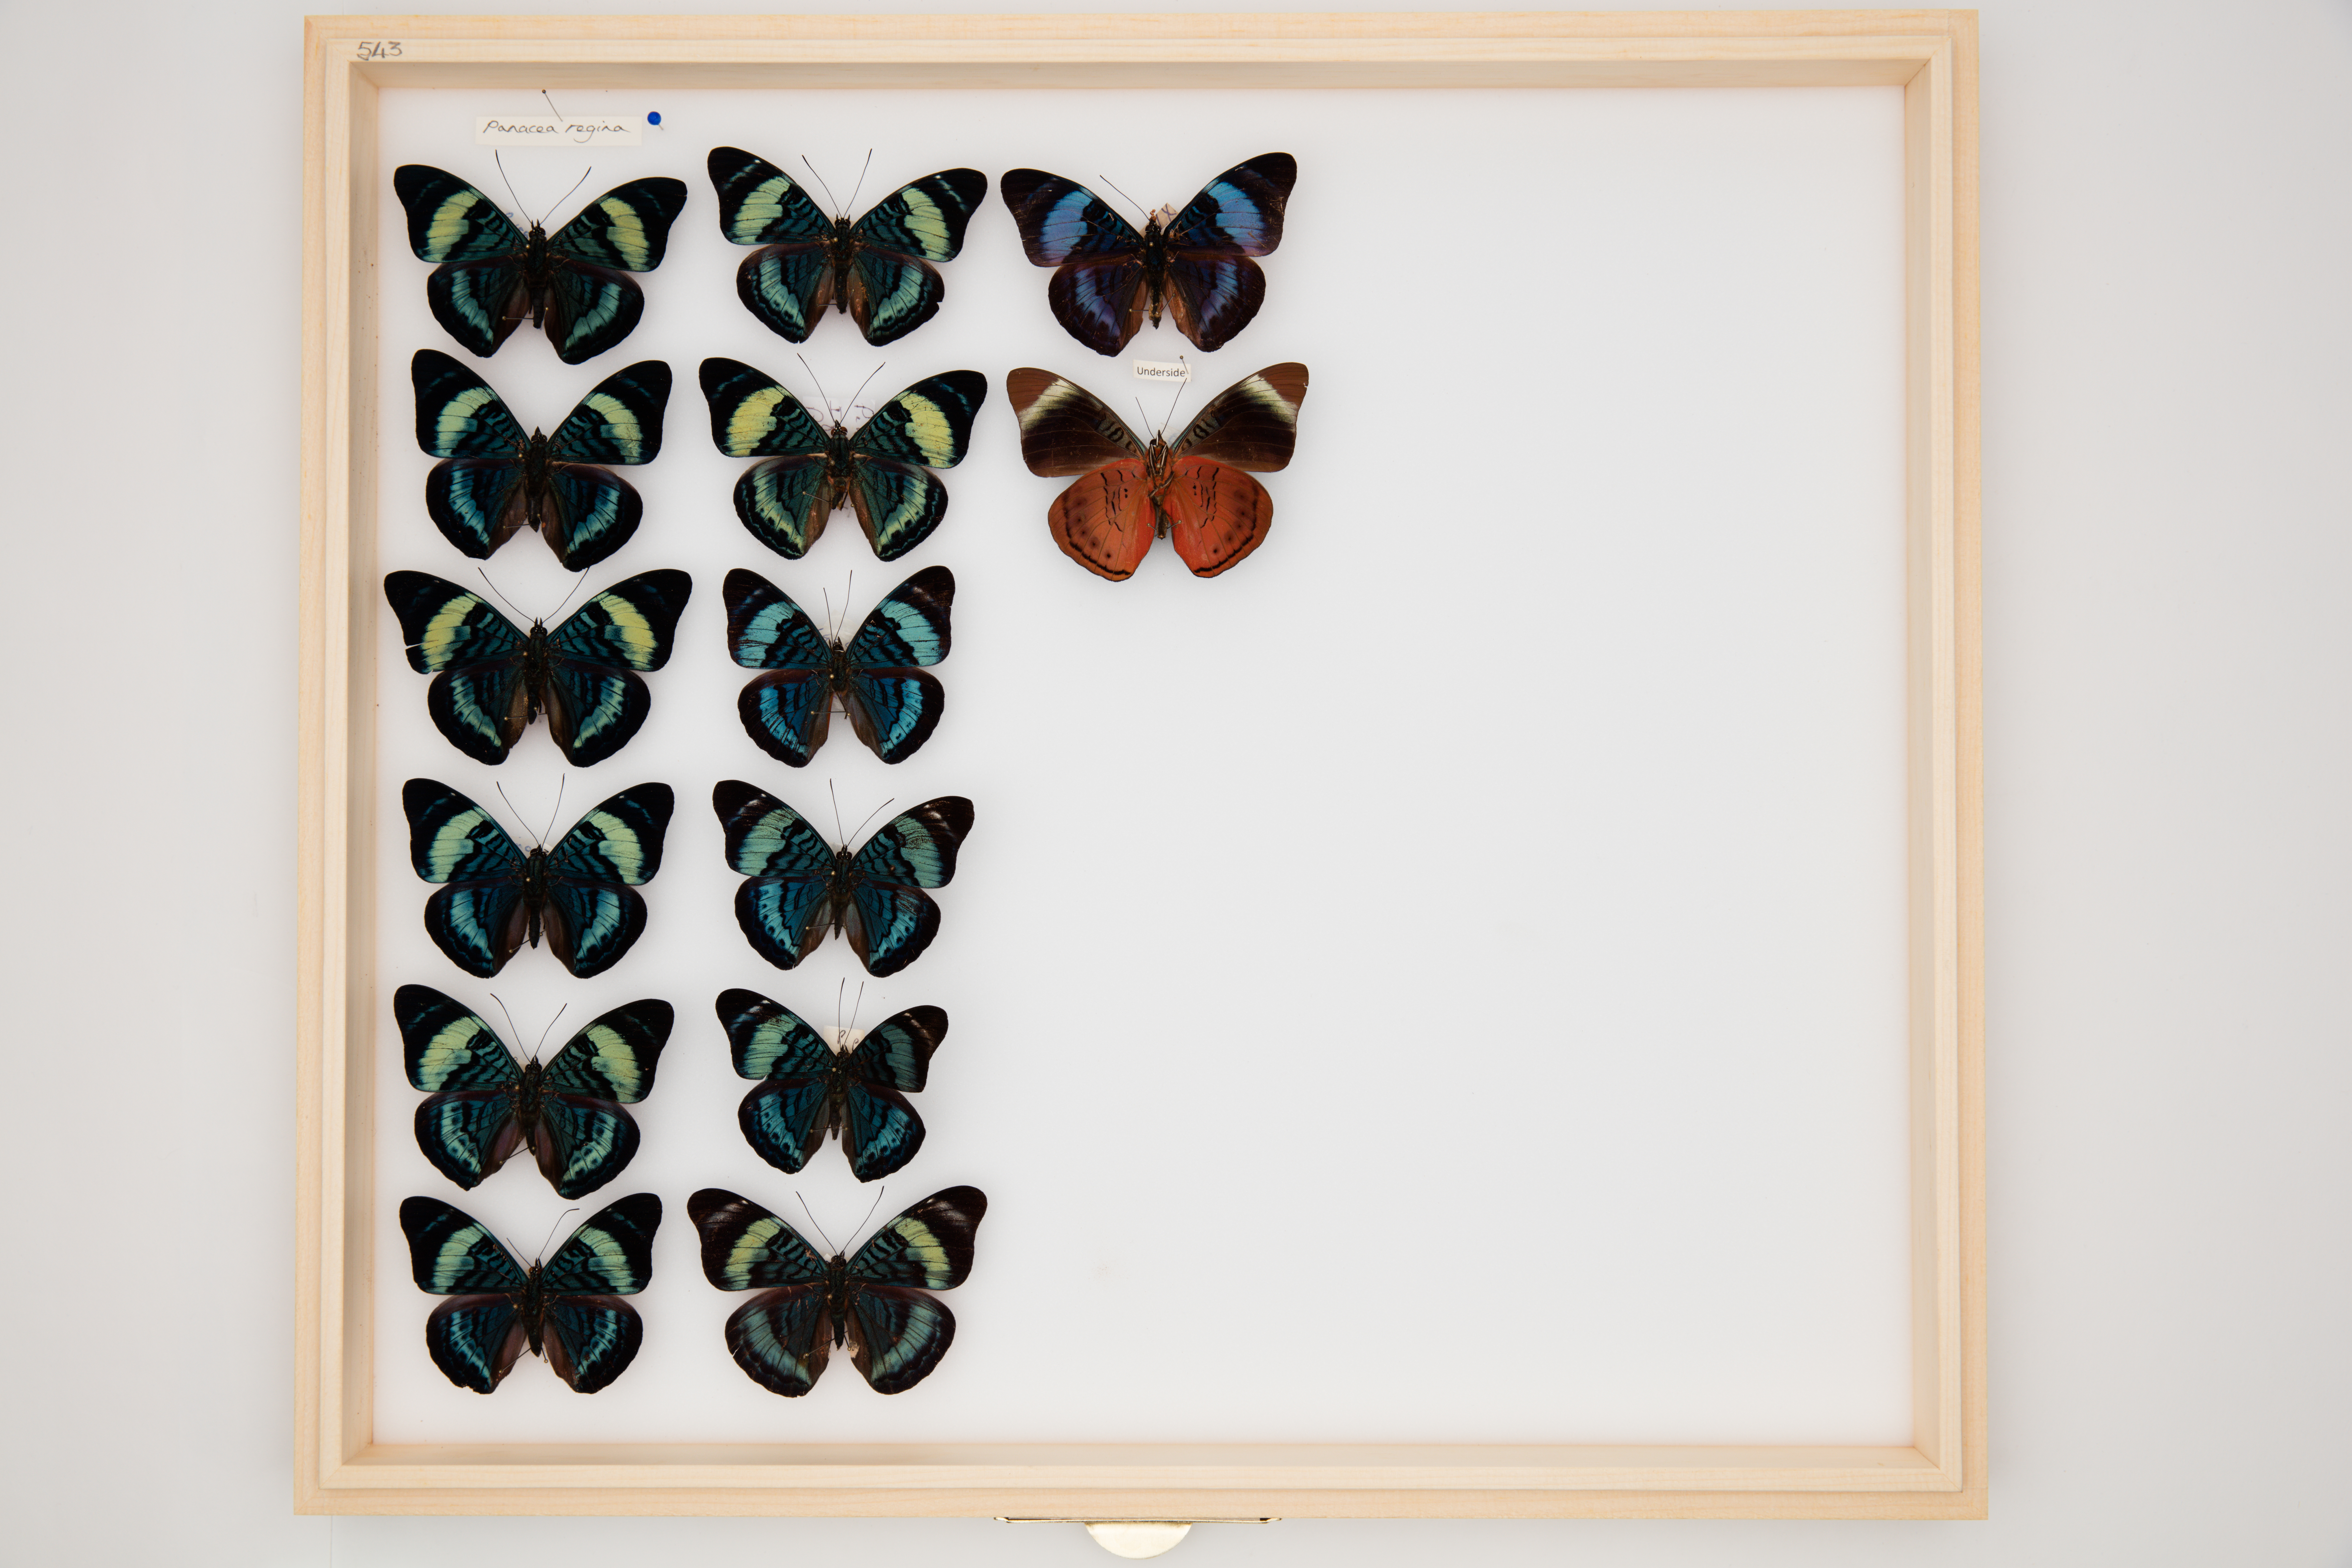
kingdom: Animalia
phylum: Arthropoda
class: Insecta
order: Lepidoptera
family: Nymphalidae
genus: Panacea
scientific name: Panacea regina
